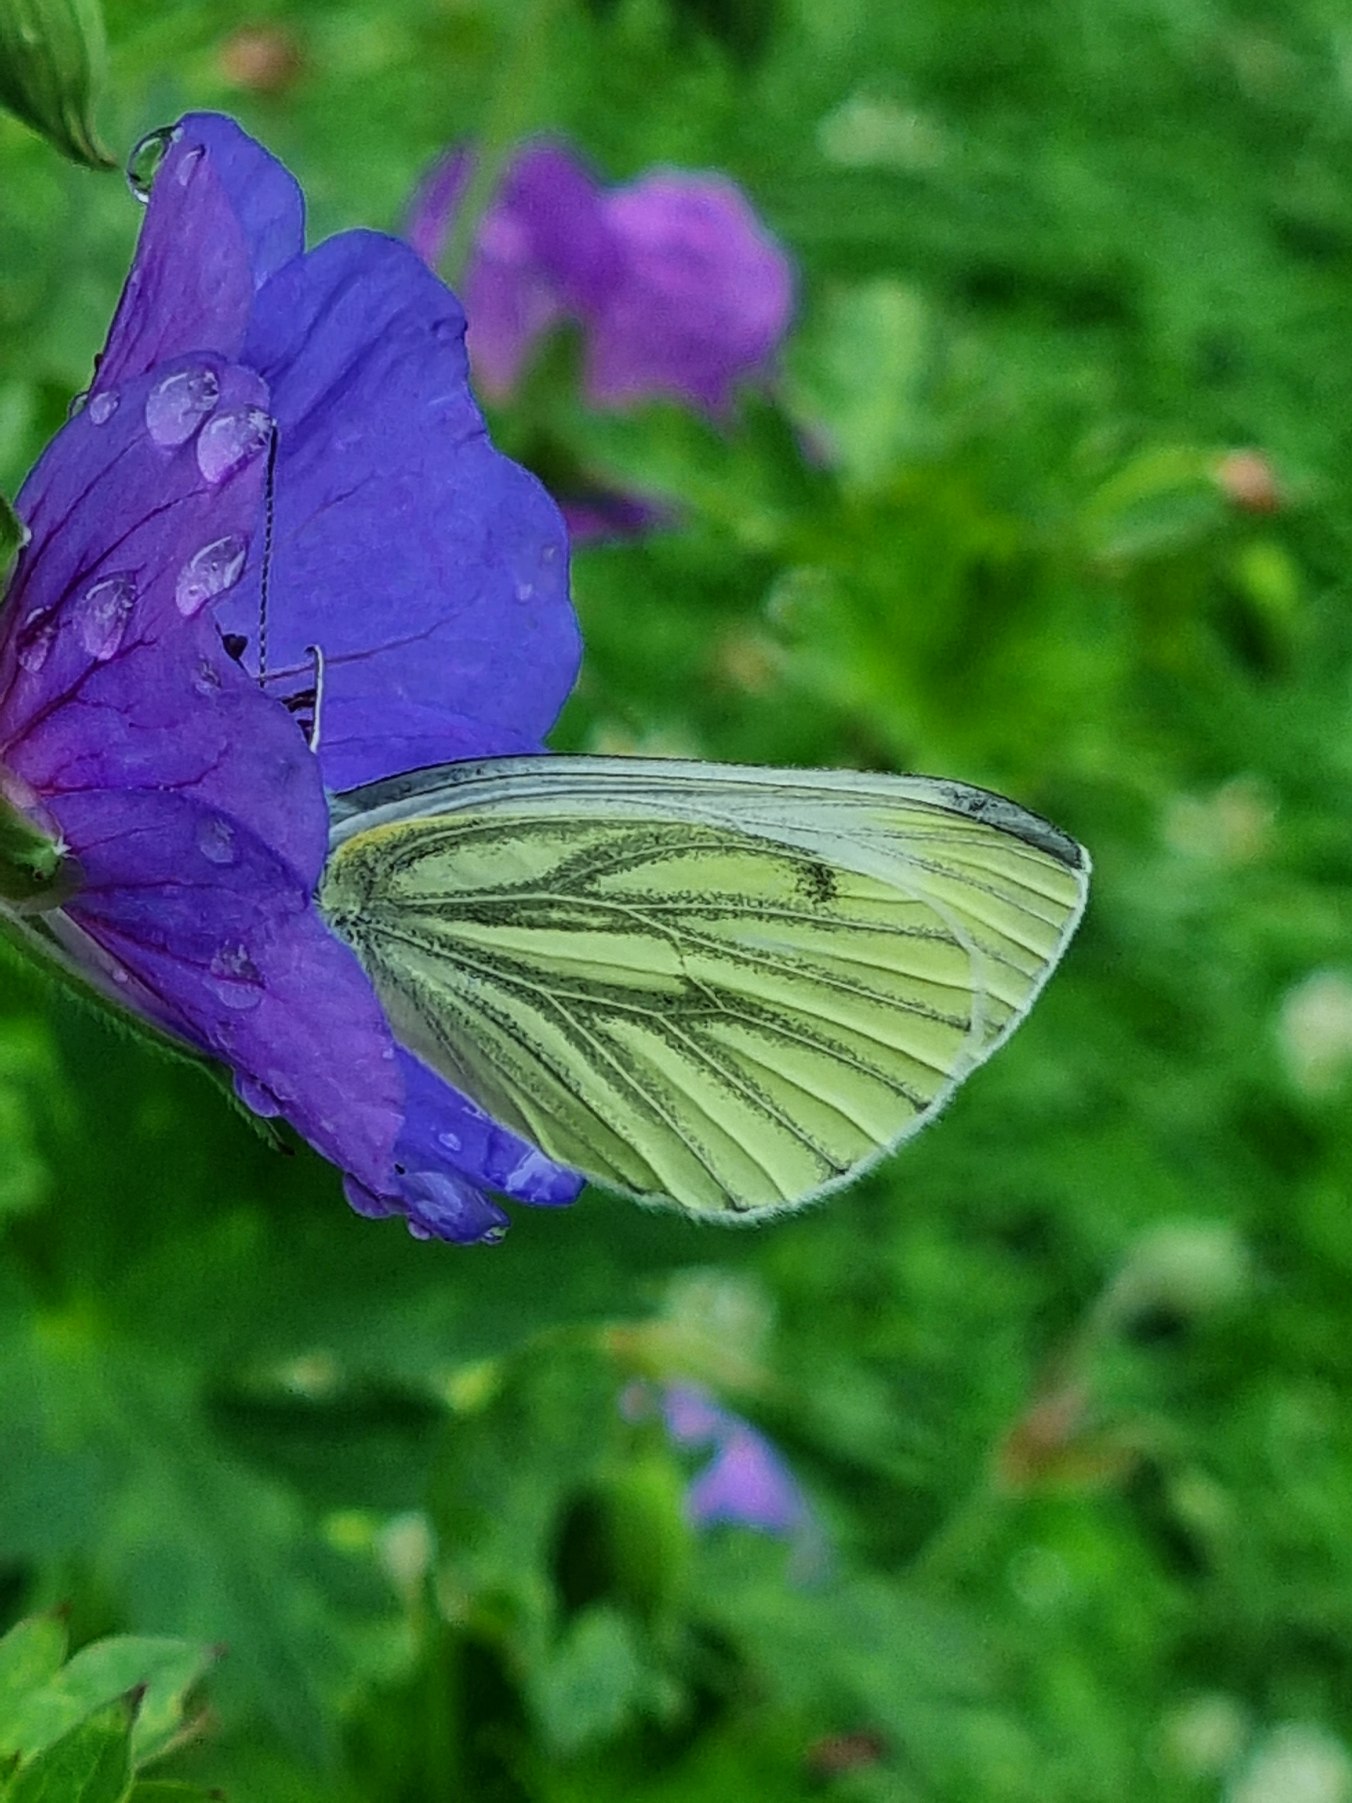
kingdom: Animalia
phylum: Arthropoda
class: Insecta
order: Lepidoptera
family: Pieridae
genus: Pieris
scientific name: Pieris napi
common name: Grønåret kålsommerfugl
